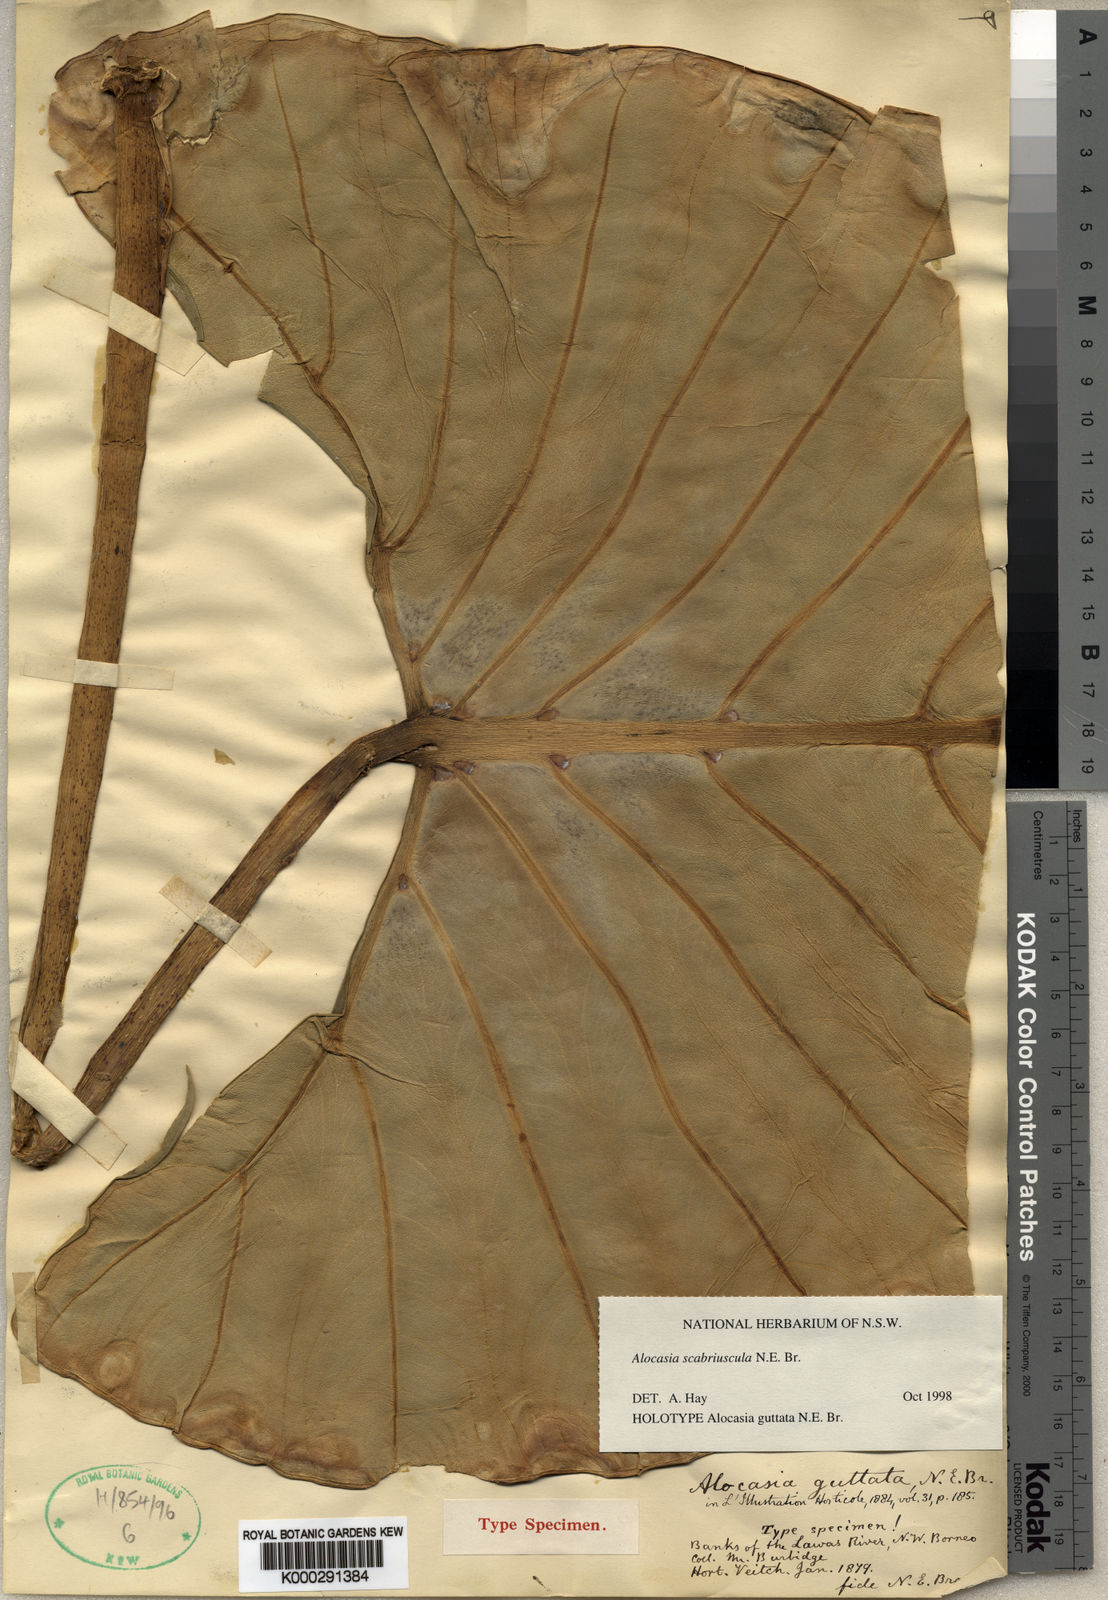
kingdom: Plantae
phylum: Tracheophyta
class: Liliopsida
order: Alismatales
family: Araceae
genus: Alocasia
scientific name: Alocasia scabriuscula
